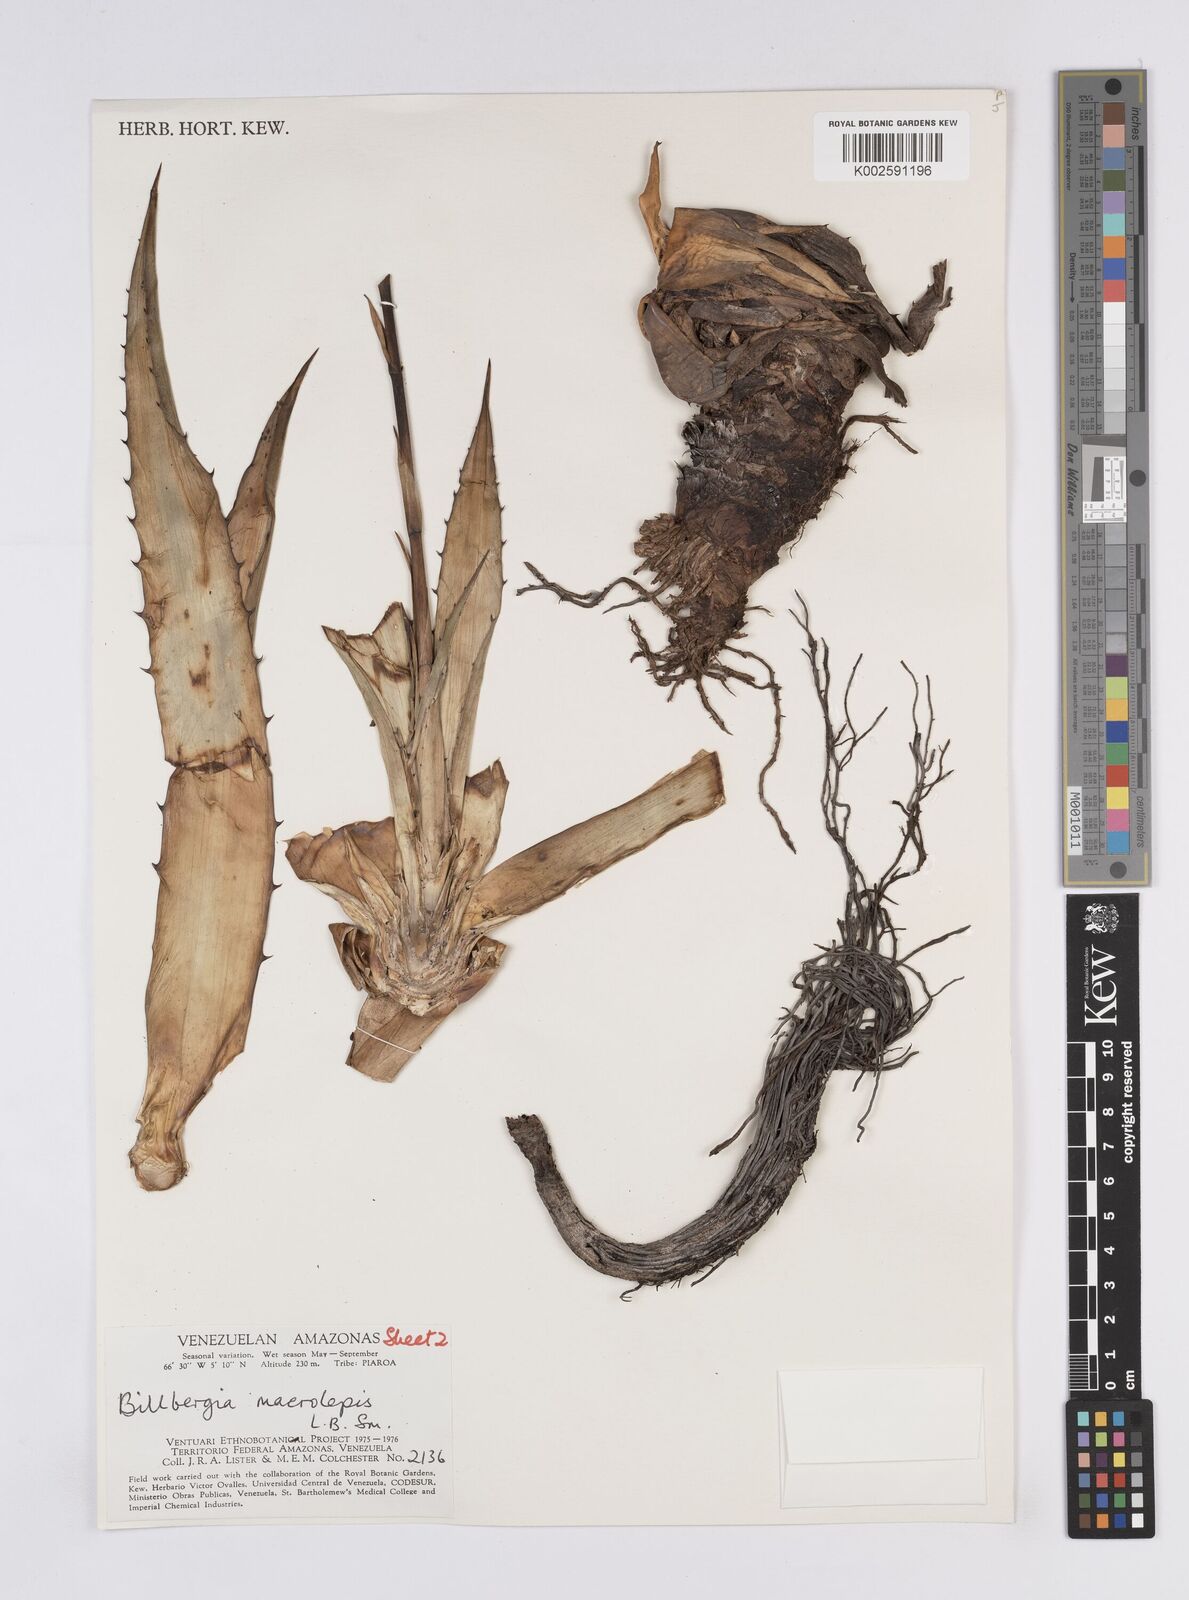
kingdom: Plantae
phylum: Tracheophyta
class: Liliopsida
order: Poales
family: Bromeliaceae
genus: Billbergia
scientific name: Billbergia macrolepis
